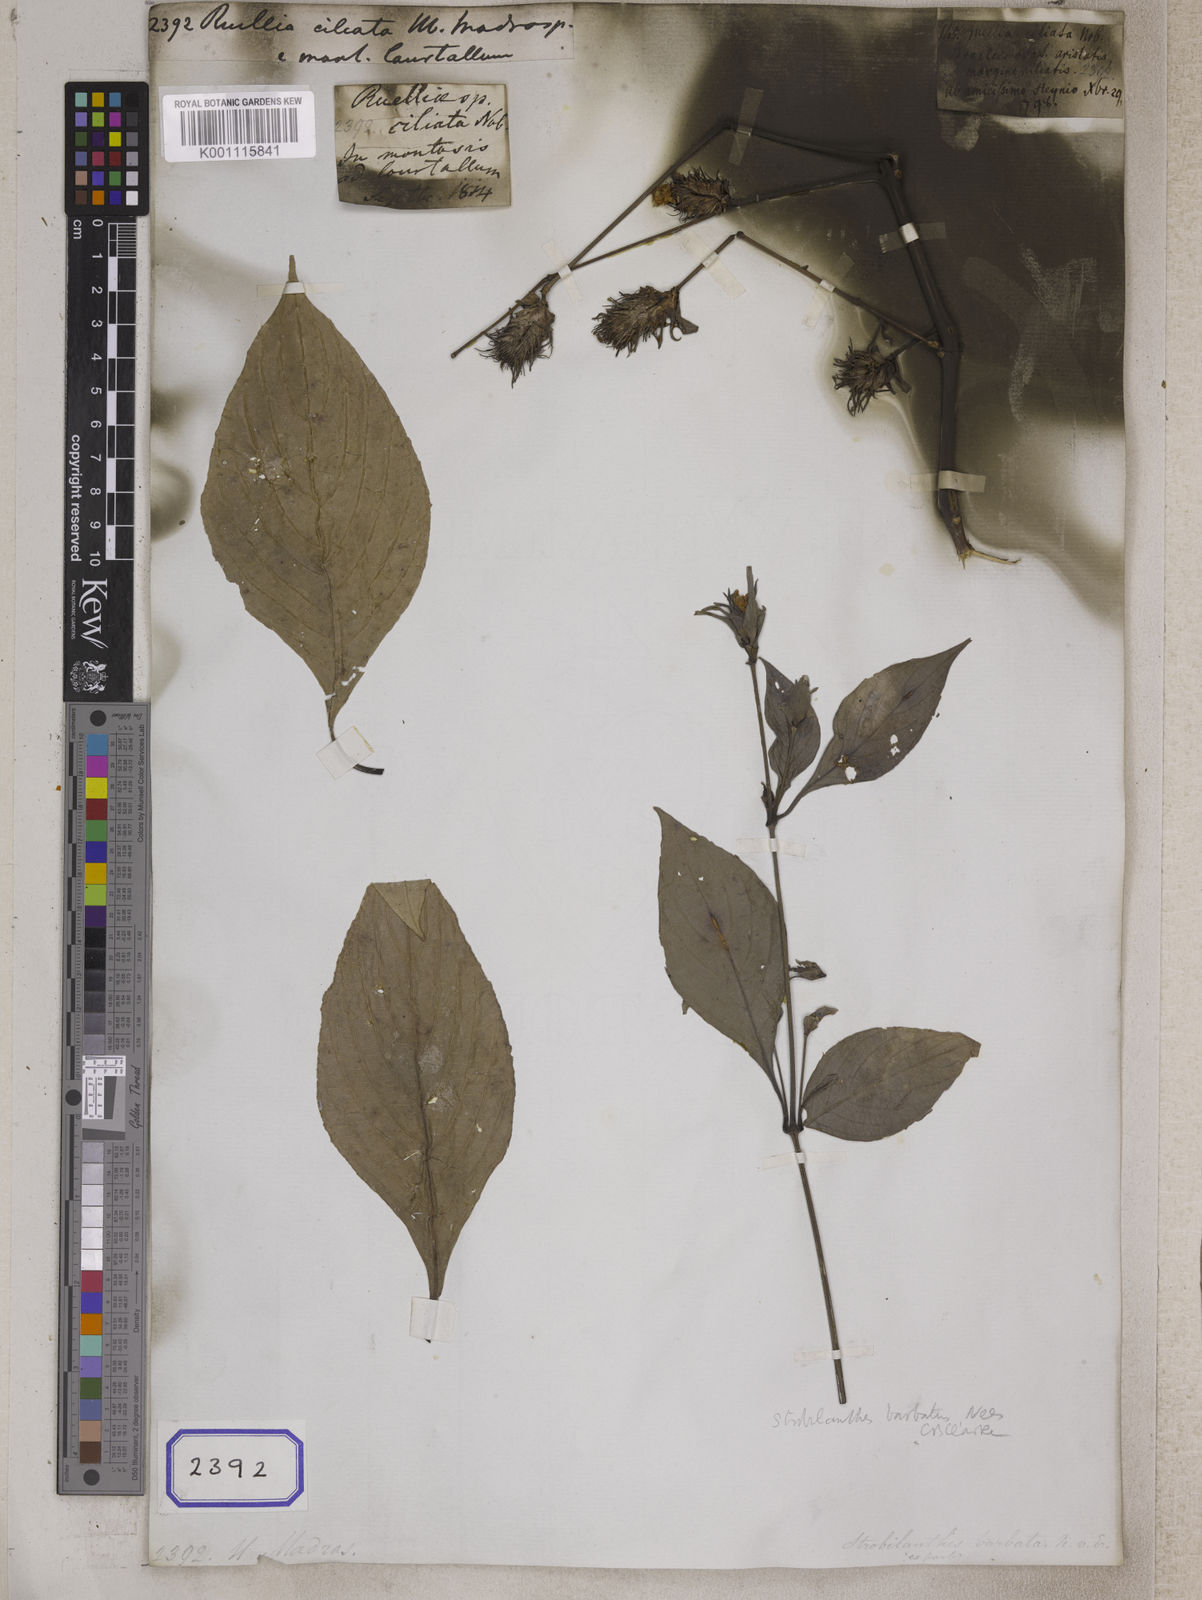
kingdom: Plantae
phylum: Tracheophyta
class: Magnoliopsida
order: Lamiales
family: Acanthaceae
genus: Ruellia
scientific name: Ruellia
